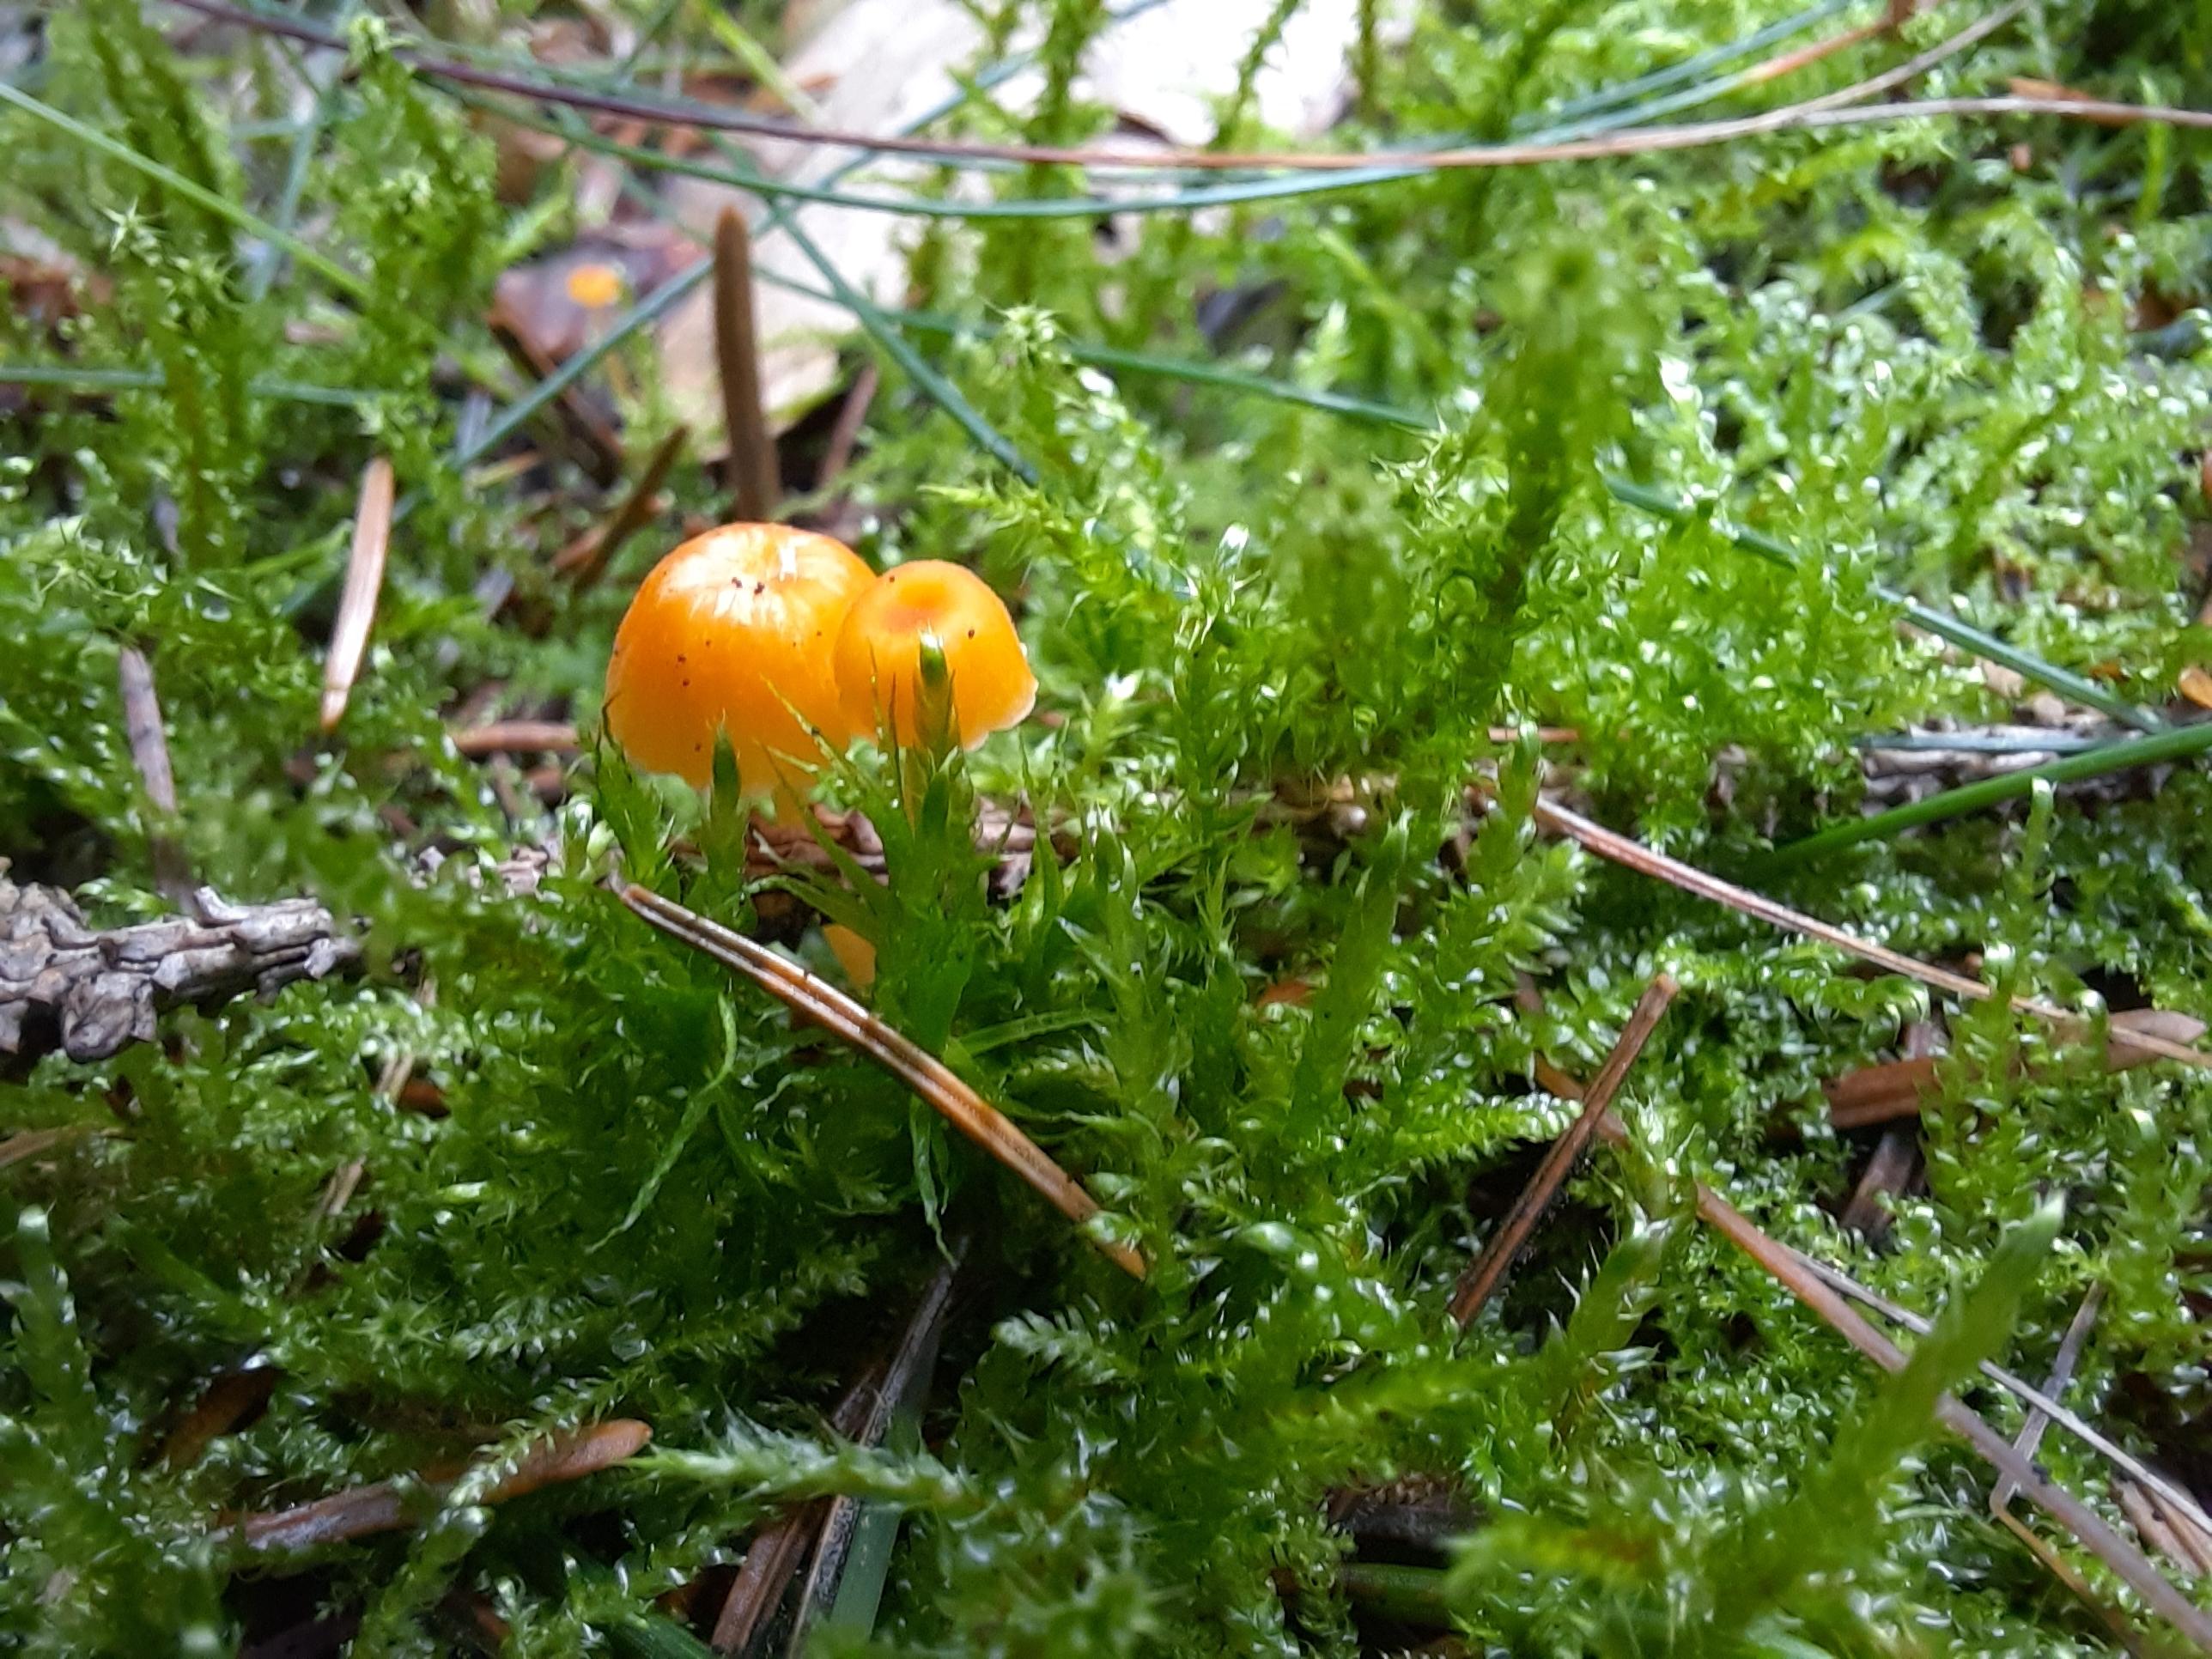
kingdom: Fungi
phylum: Basidiomycota
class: Agaricomycetes
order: Hymenochaetales
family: Rickenellaceae
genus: Rickenella
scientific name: Rickenella fibula
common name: orange mosnavlehat
